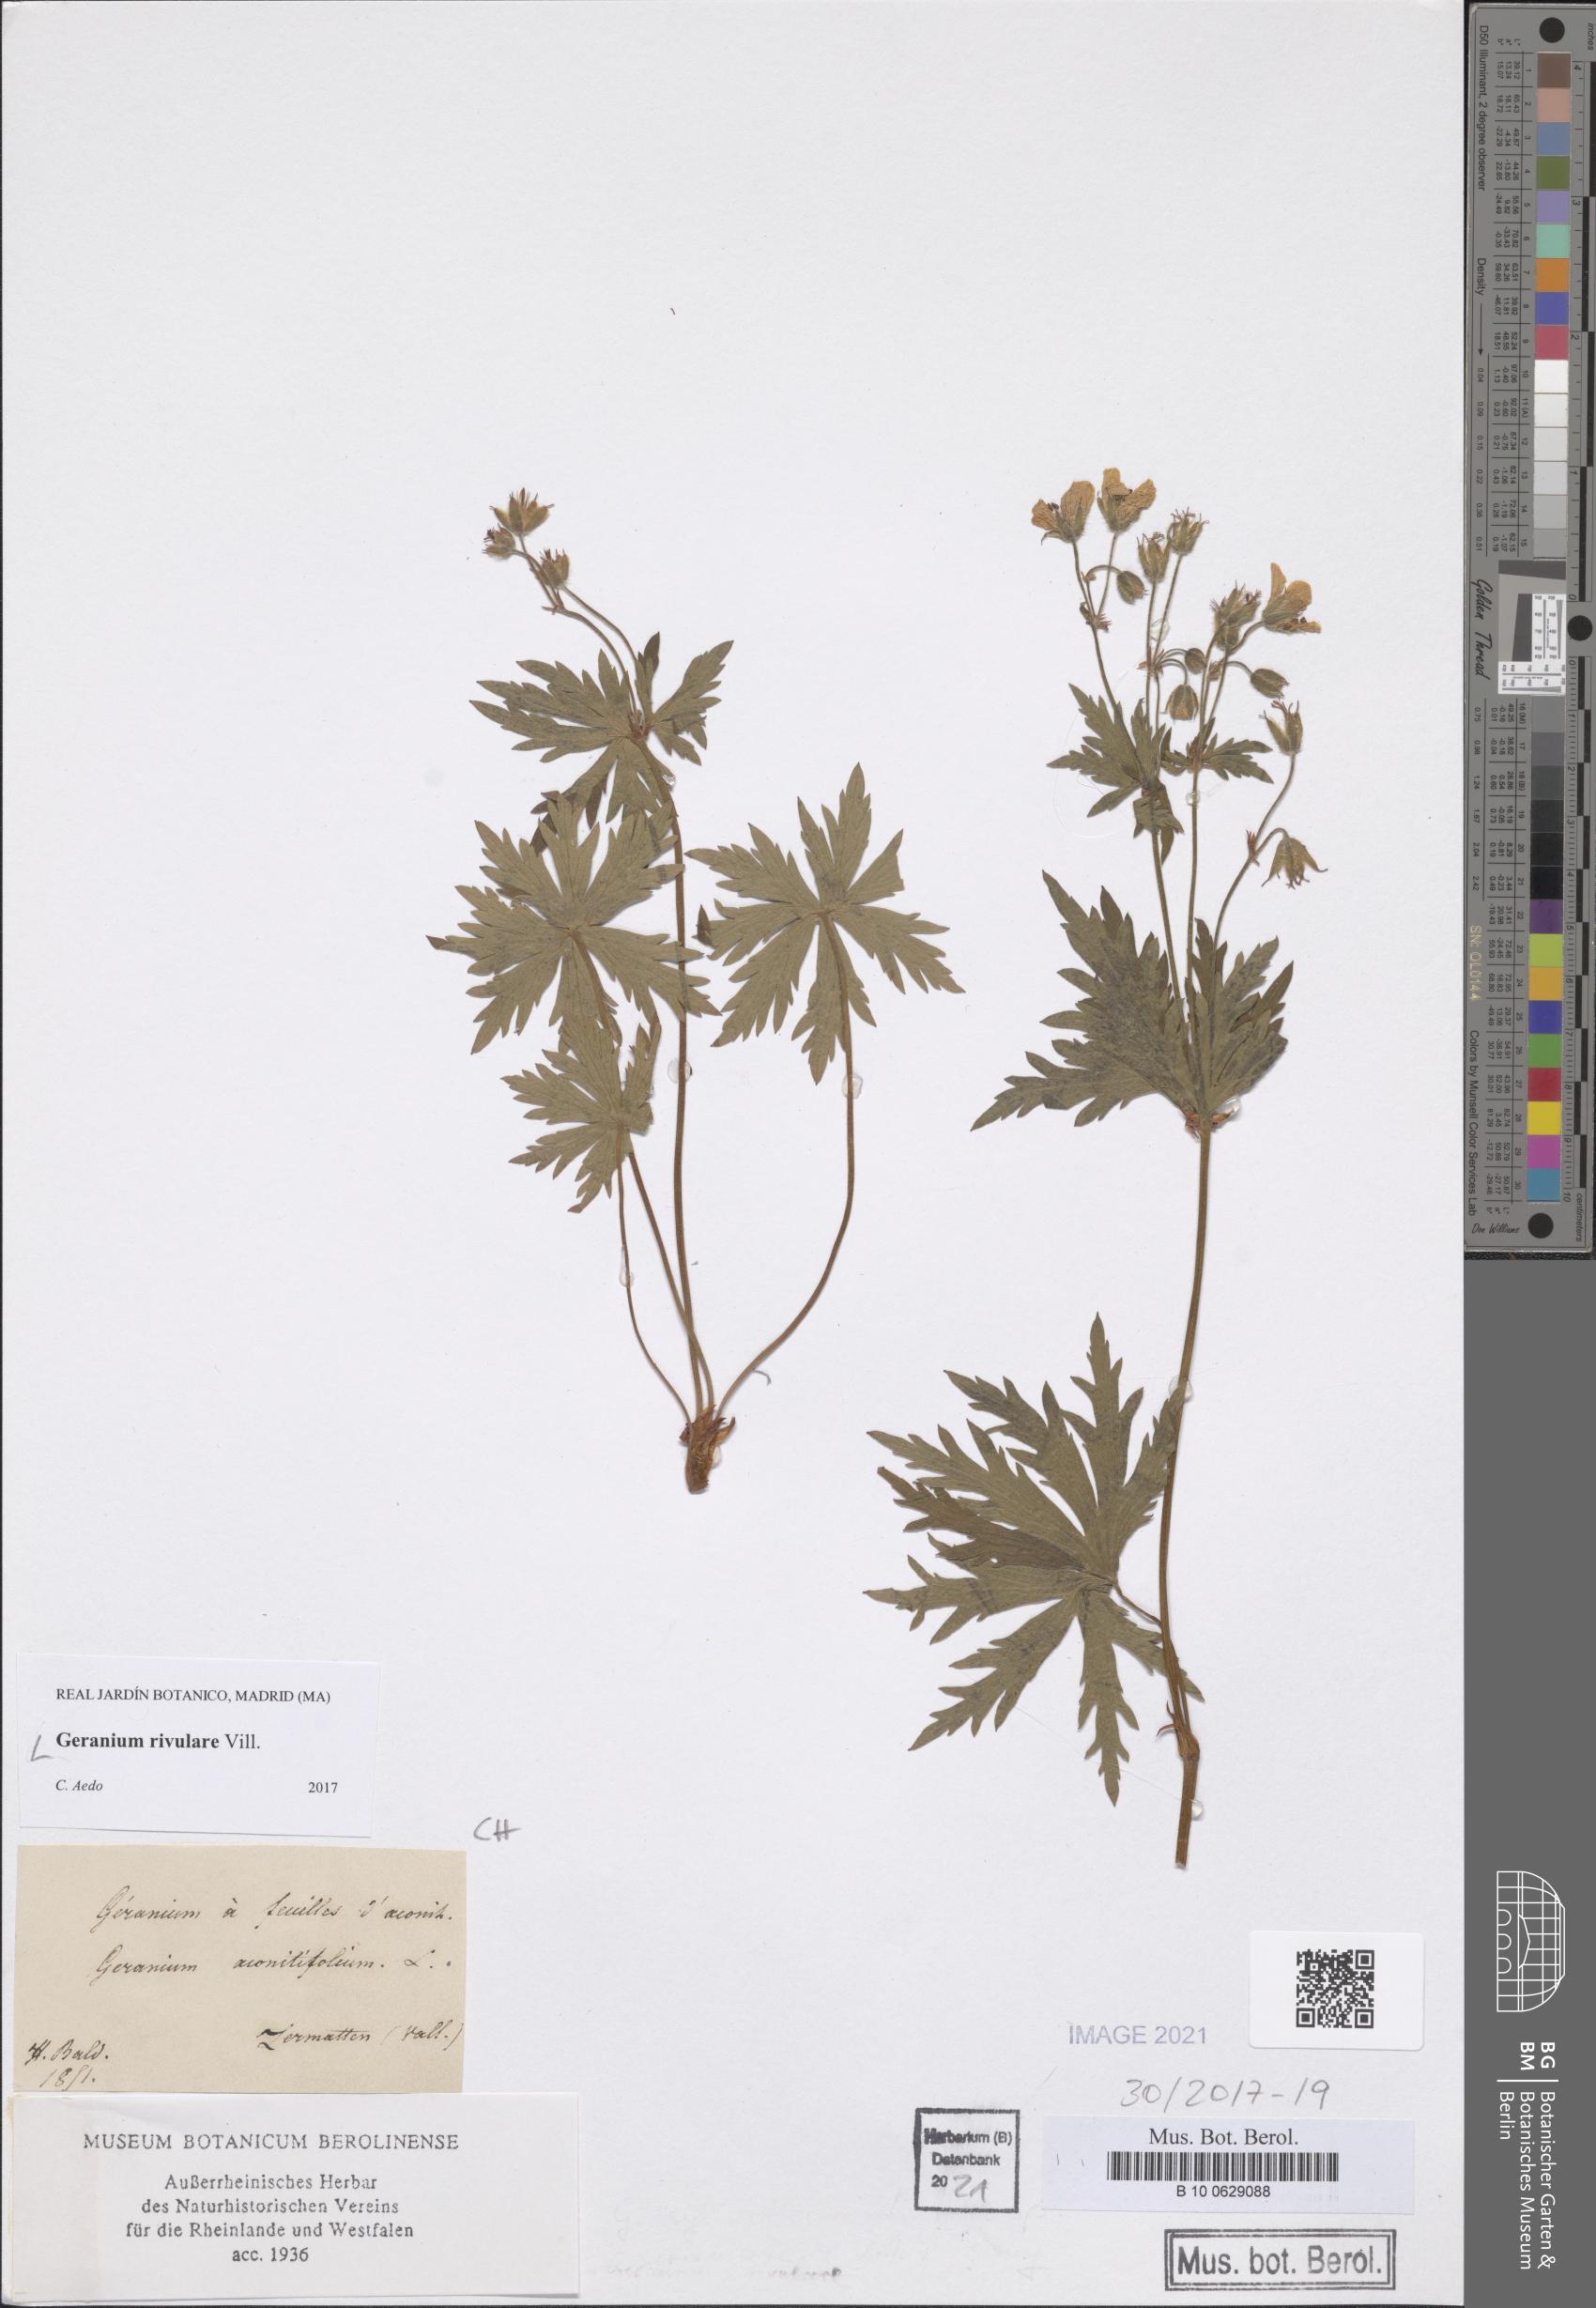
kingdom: Plantae
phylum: Tracheophyta
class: Magnoliopsida
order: Geraniales
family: Geraniaceae
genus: Geranium
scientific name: Geranium rivulare
